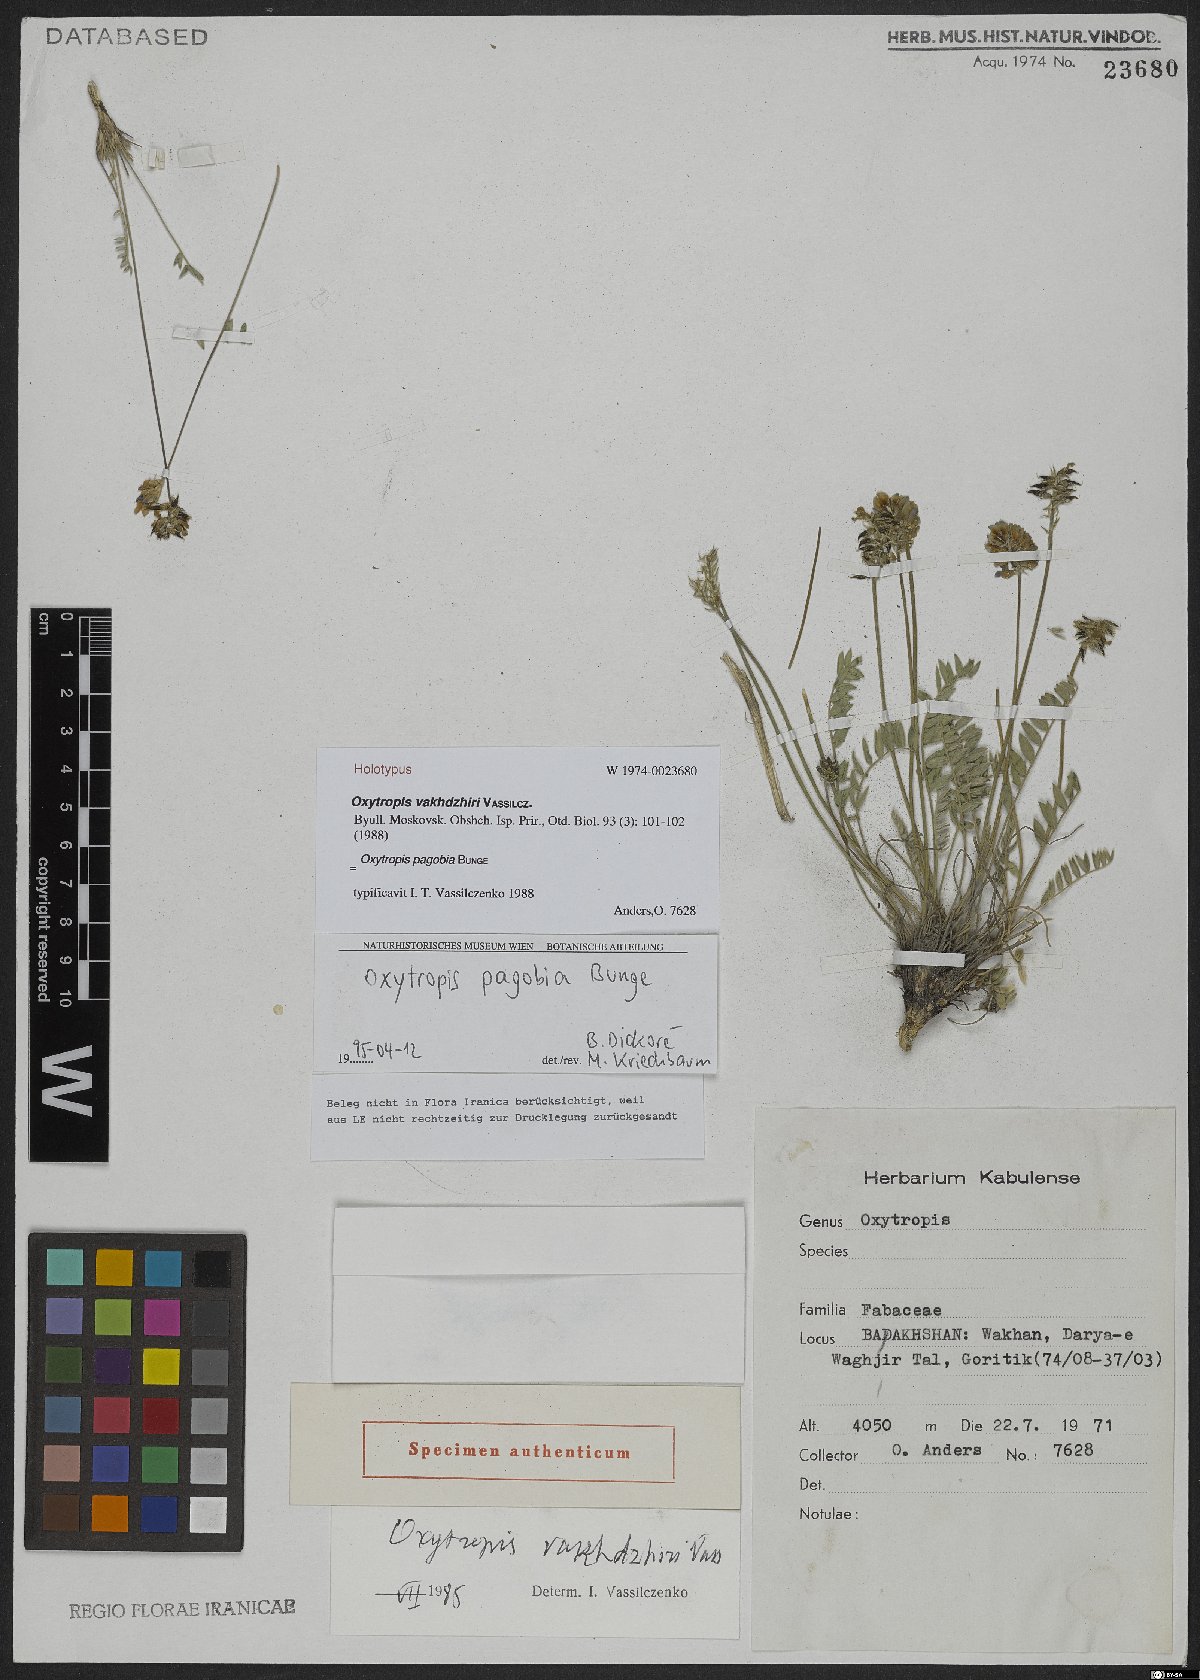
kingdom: Plantae
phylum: Tracheophyta
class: Magnoliopsida
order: Fabales
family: Fabaceae
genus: Oxytropis
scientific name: Oxytropis globiflora
